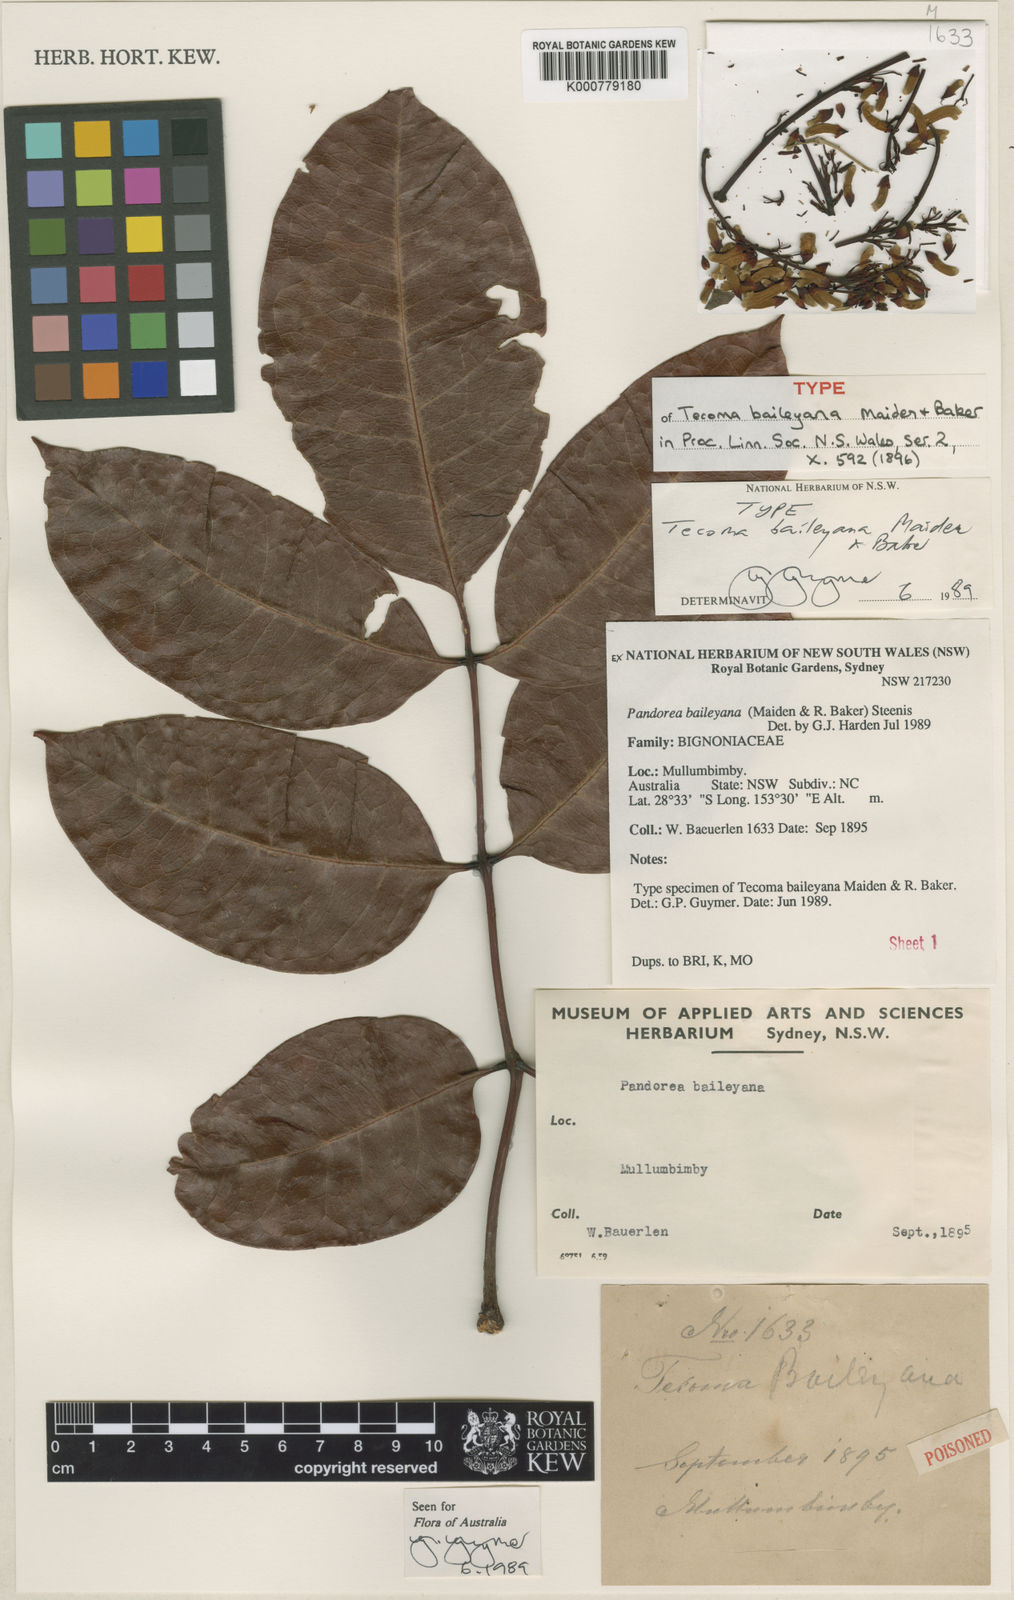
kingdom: Plantae
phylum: Tracheophyta
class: Magnoliopsida
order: Lamiales
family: Bignoniaceae
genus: Pandorea
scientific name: Pandorea baileyana
